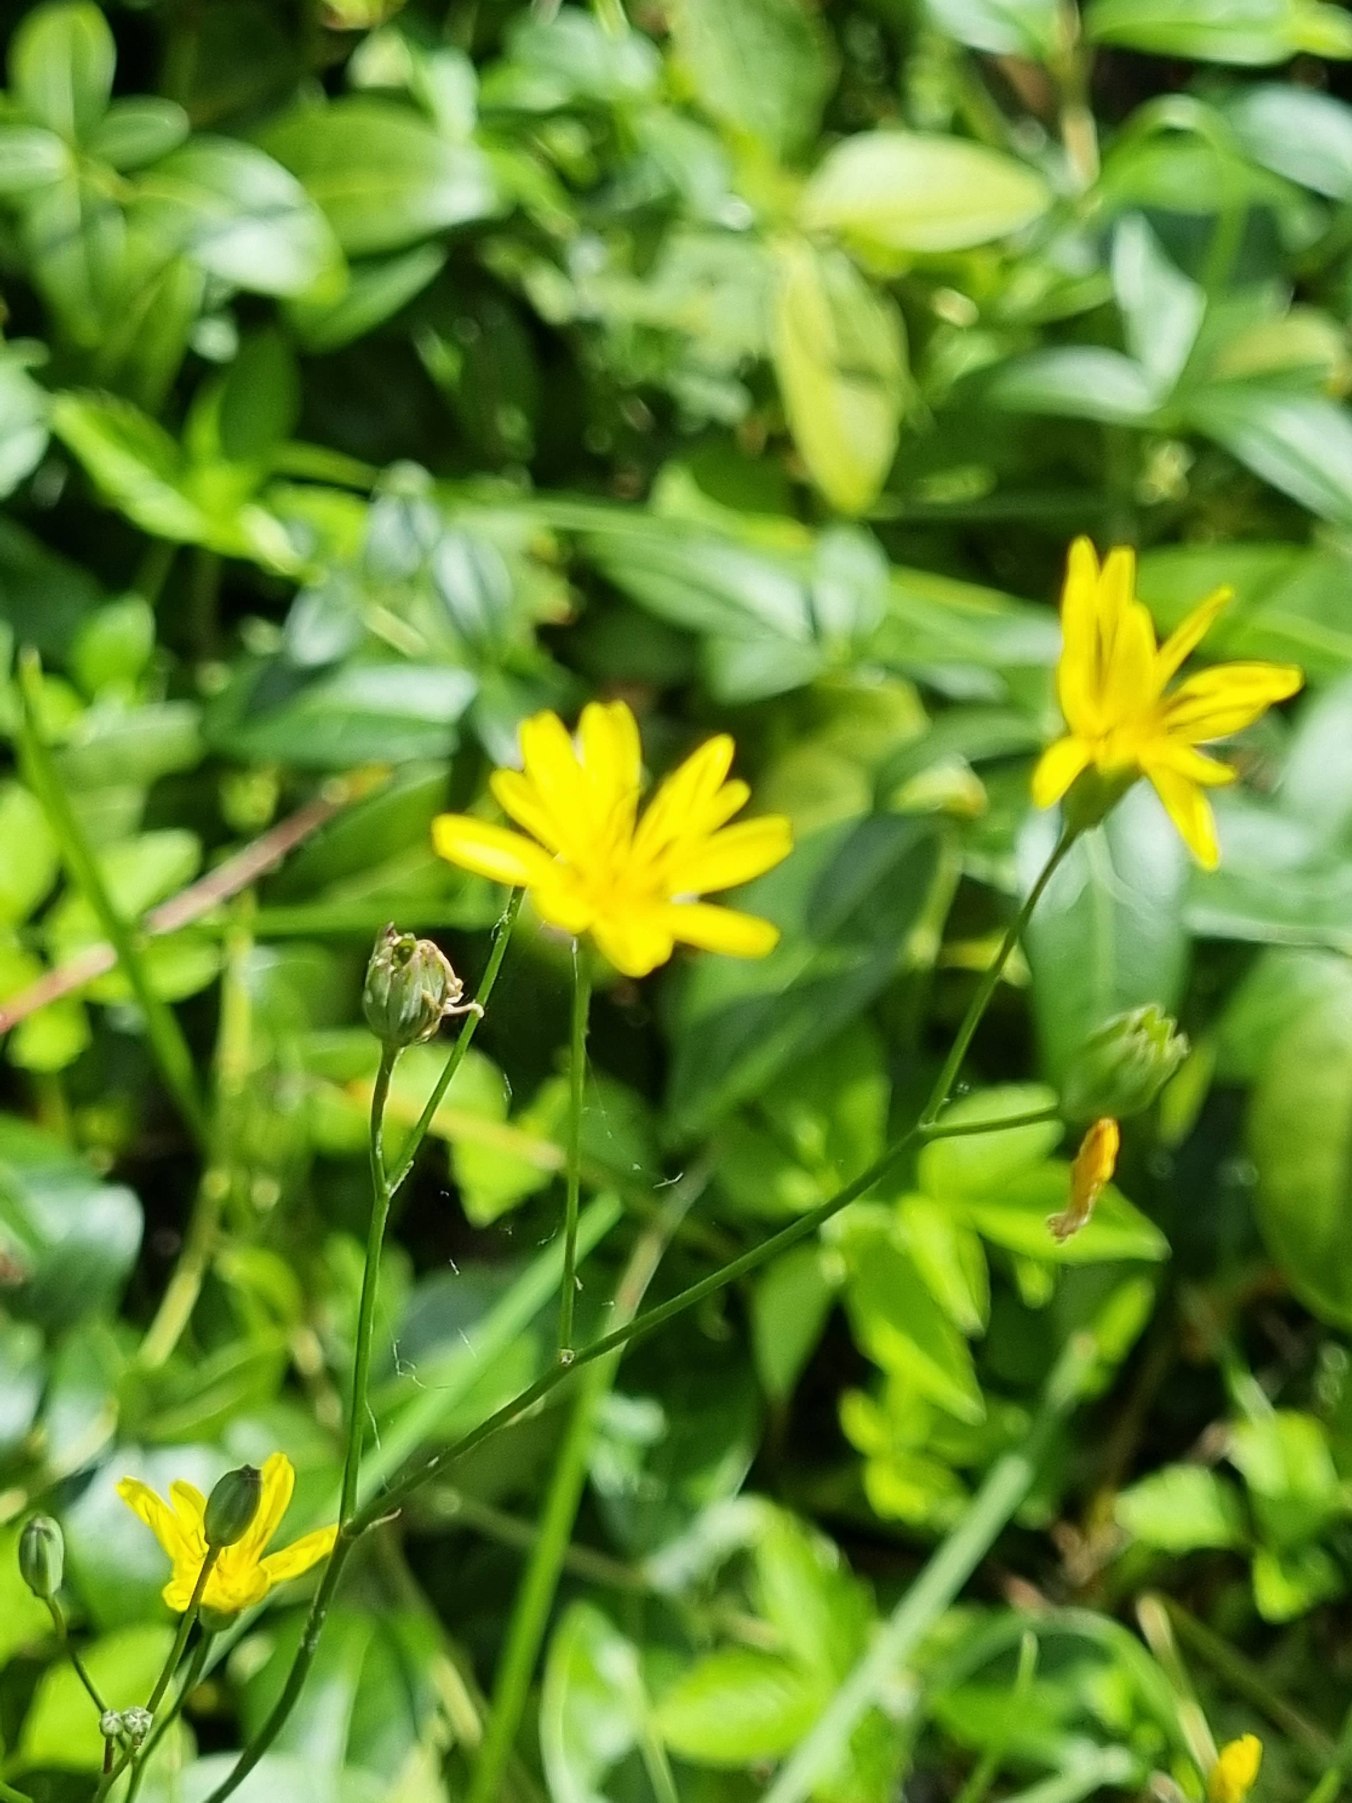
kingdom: Plantae
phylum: Tracheophyta
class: Magnoliopsida
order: Asterales
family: Asteraceae
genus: Lapsana
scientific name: Lapsana communis
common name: Haremad
